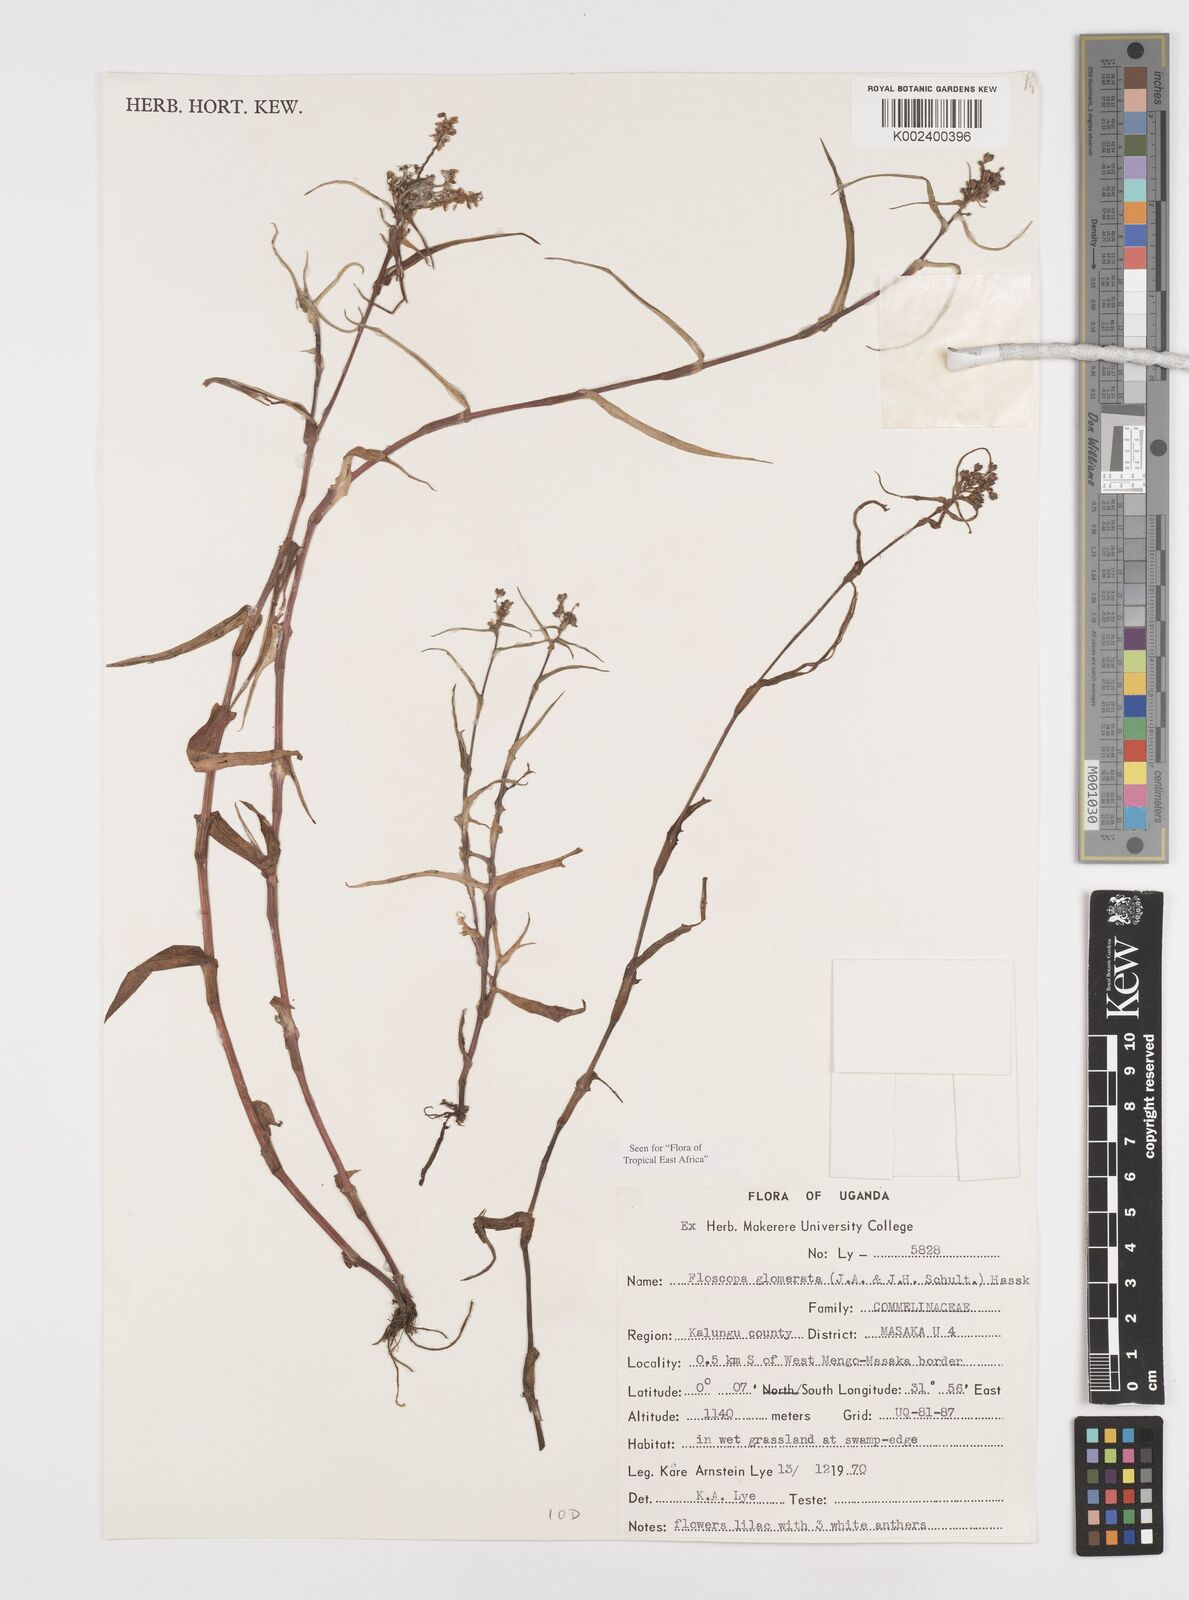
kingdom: Plantae
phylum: Tracheophyta
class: Liliopsida
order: Commelinales
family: Commelinaceae
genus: Floscopa
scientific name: Floscopa glomerata
